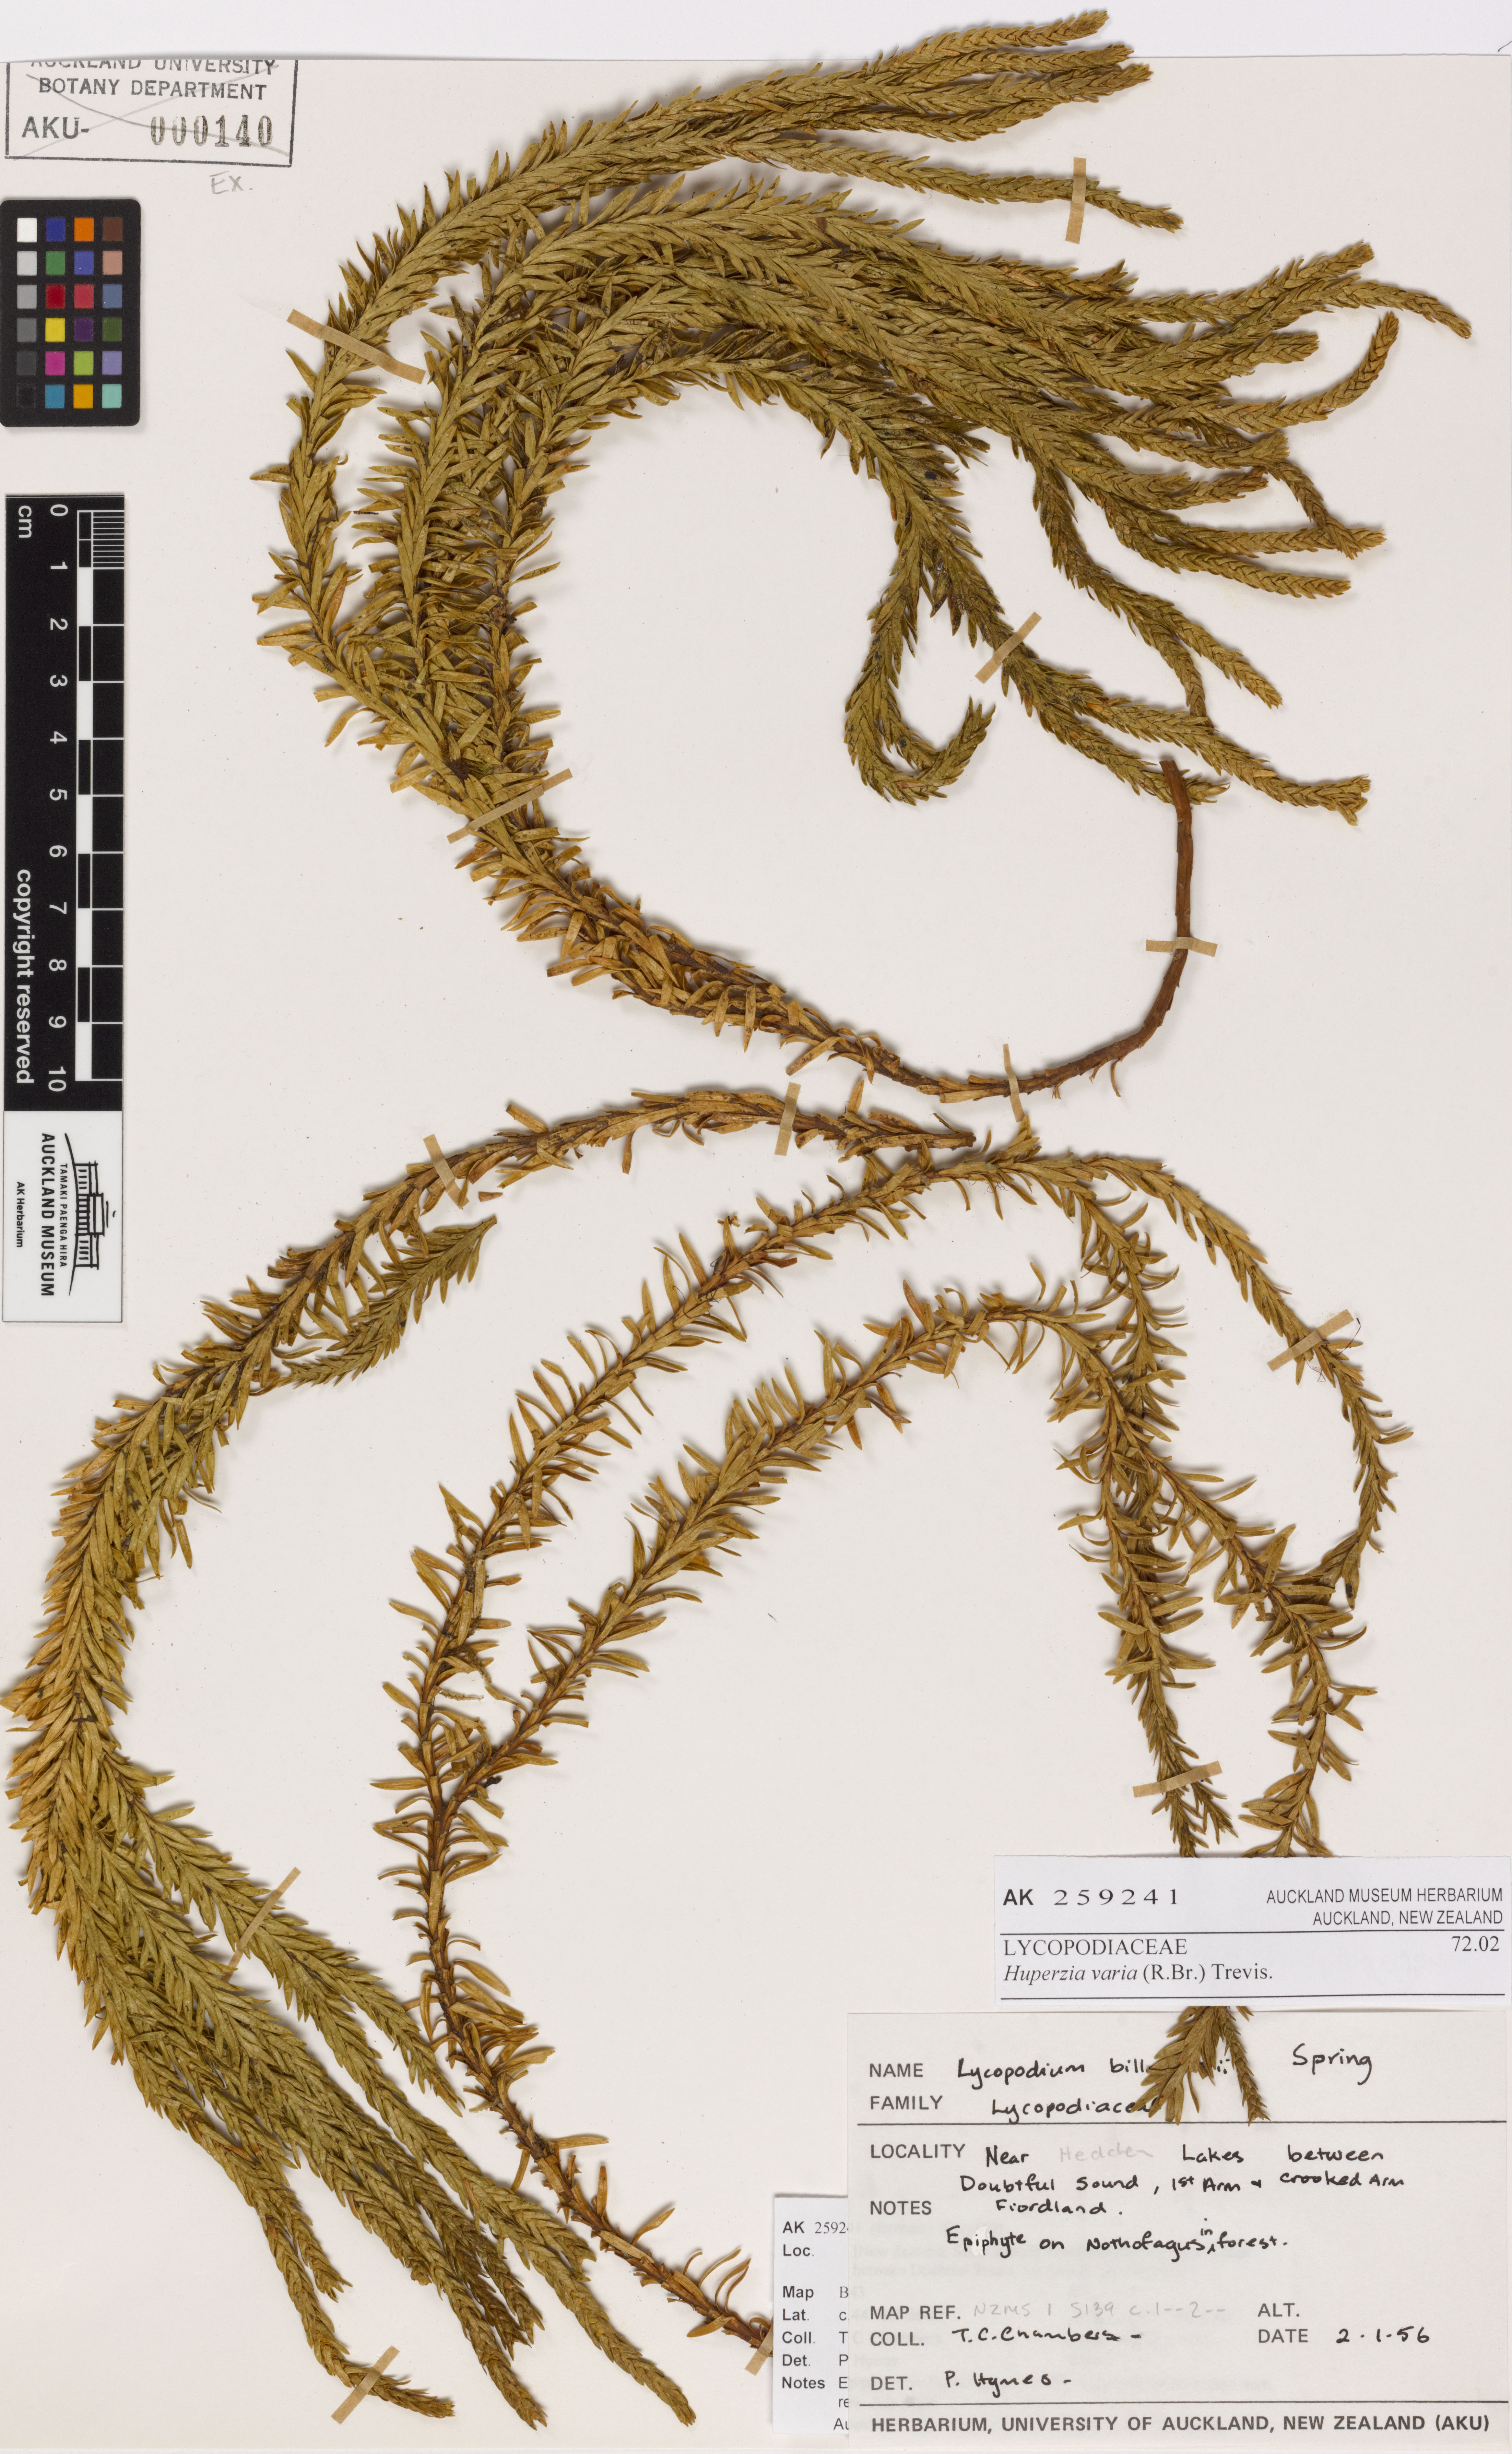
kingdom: Plantae
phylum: Tracheophyta
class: Lycopodiopsida
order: Lycopodiales
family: Lycopodiaceae
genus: Phlegmariurus
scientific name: Phlegmariurus varius
